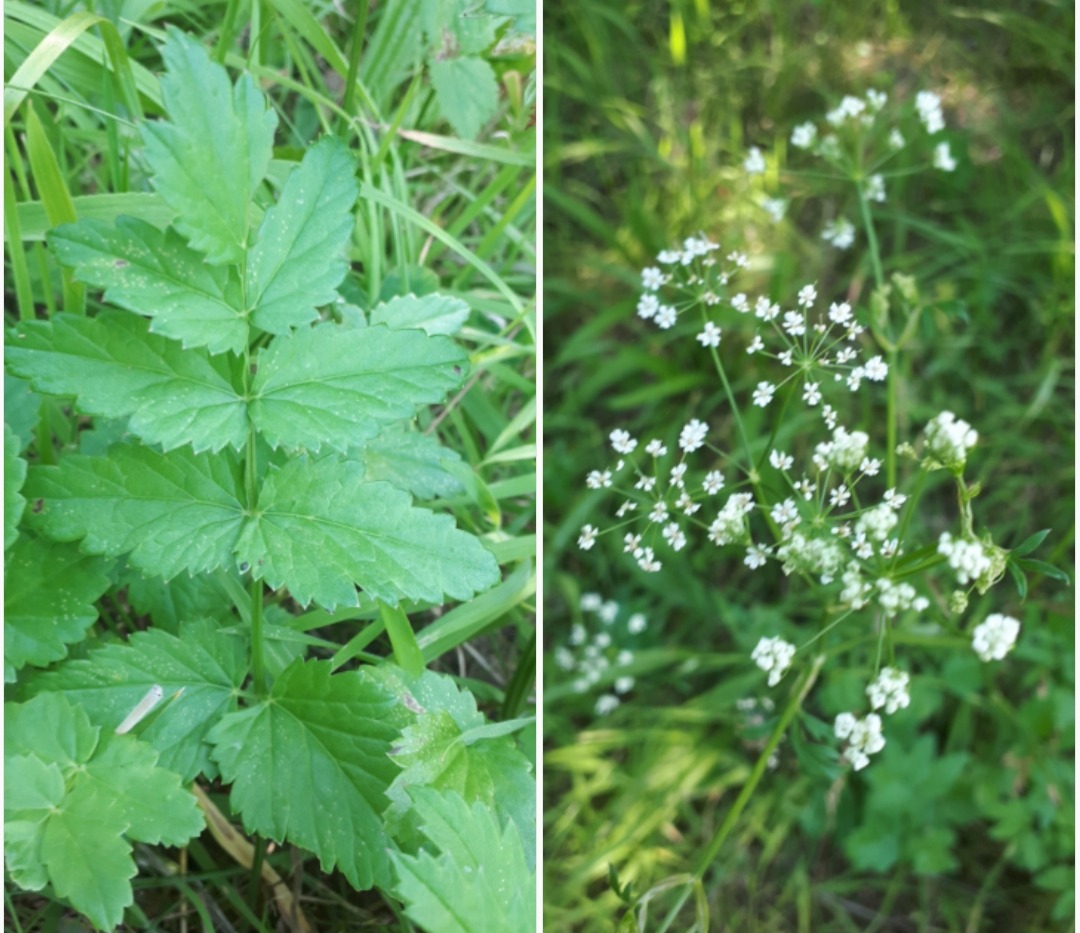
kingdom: Plantae
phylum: Tracheophyta
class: Magnoliopsida
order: Apiales
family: Apiaceae
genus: Pimpinella
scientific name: Pimpinella major
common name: Stor pimpinelle
